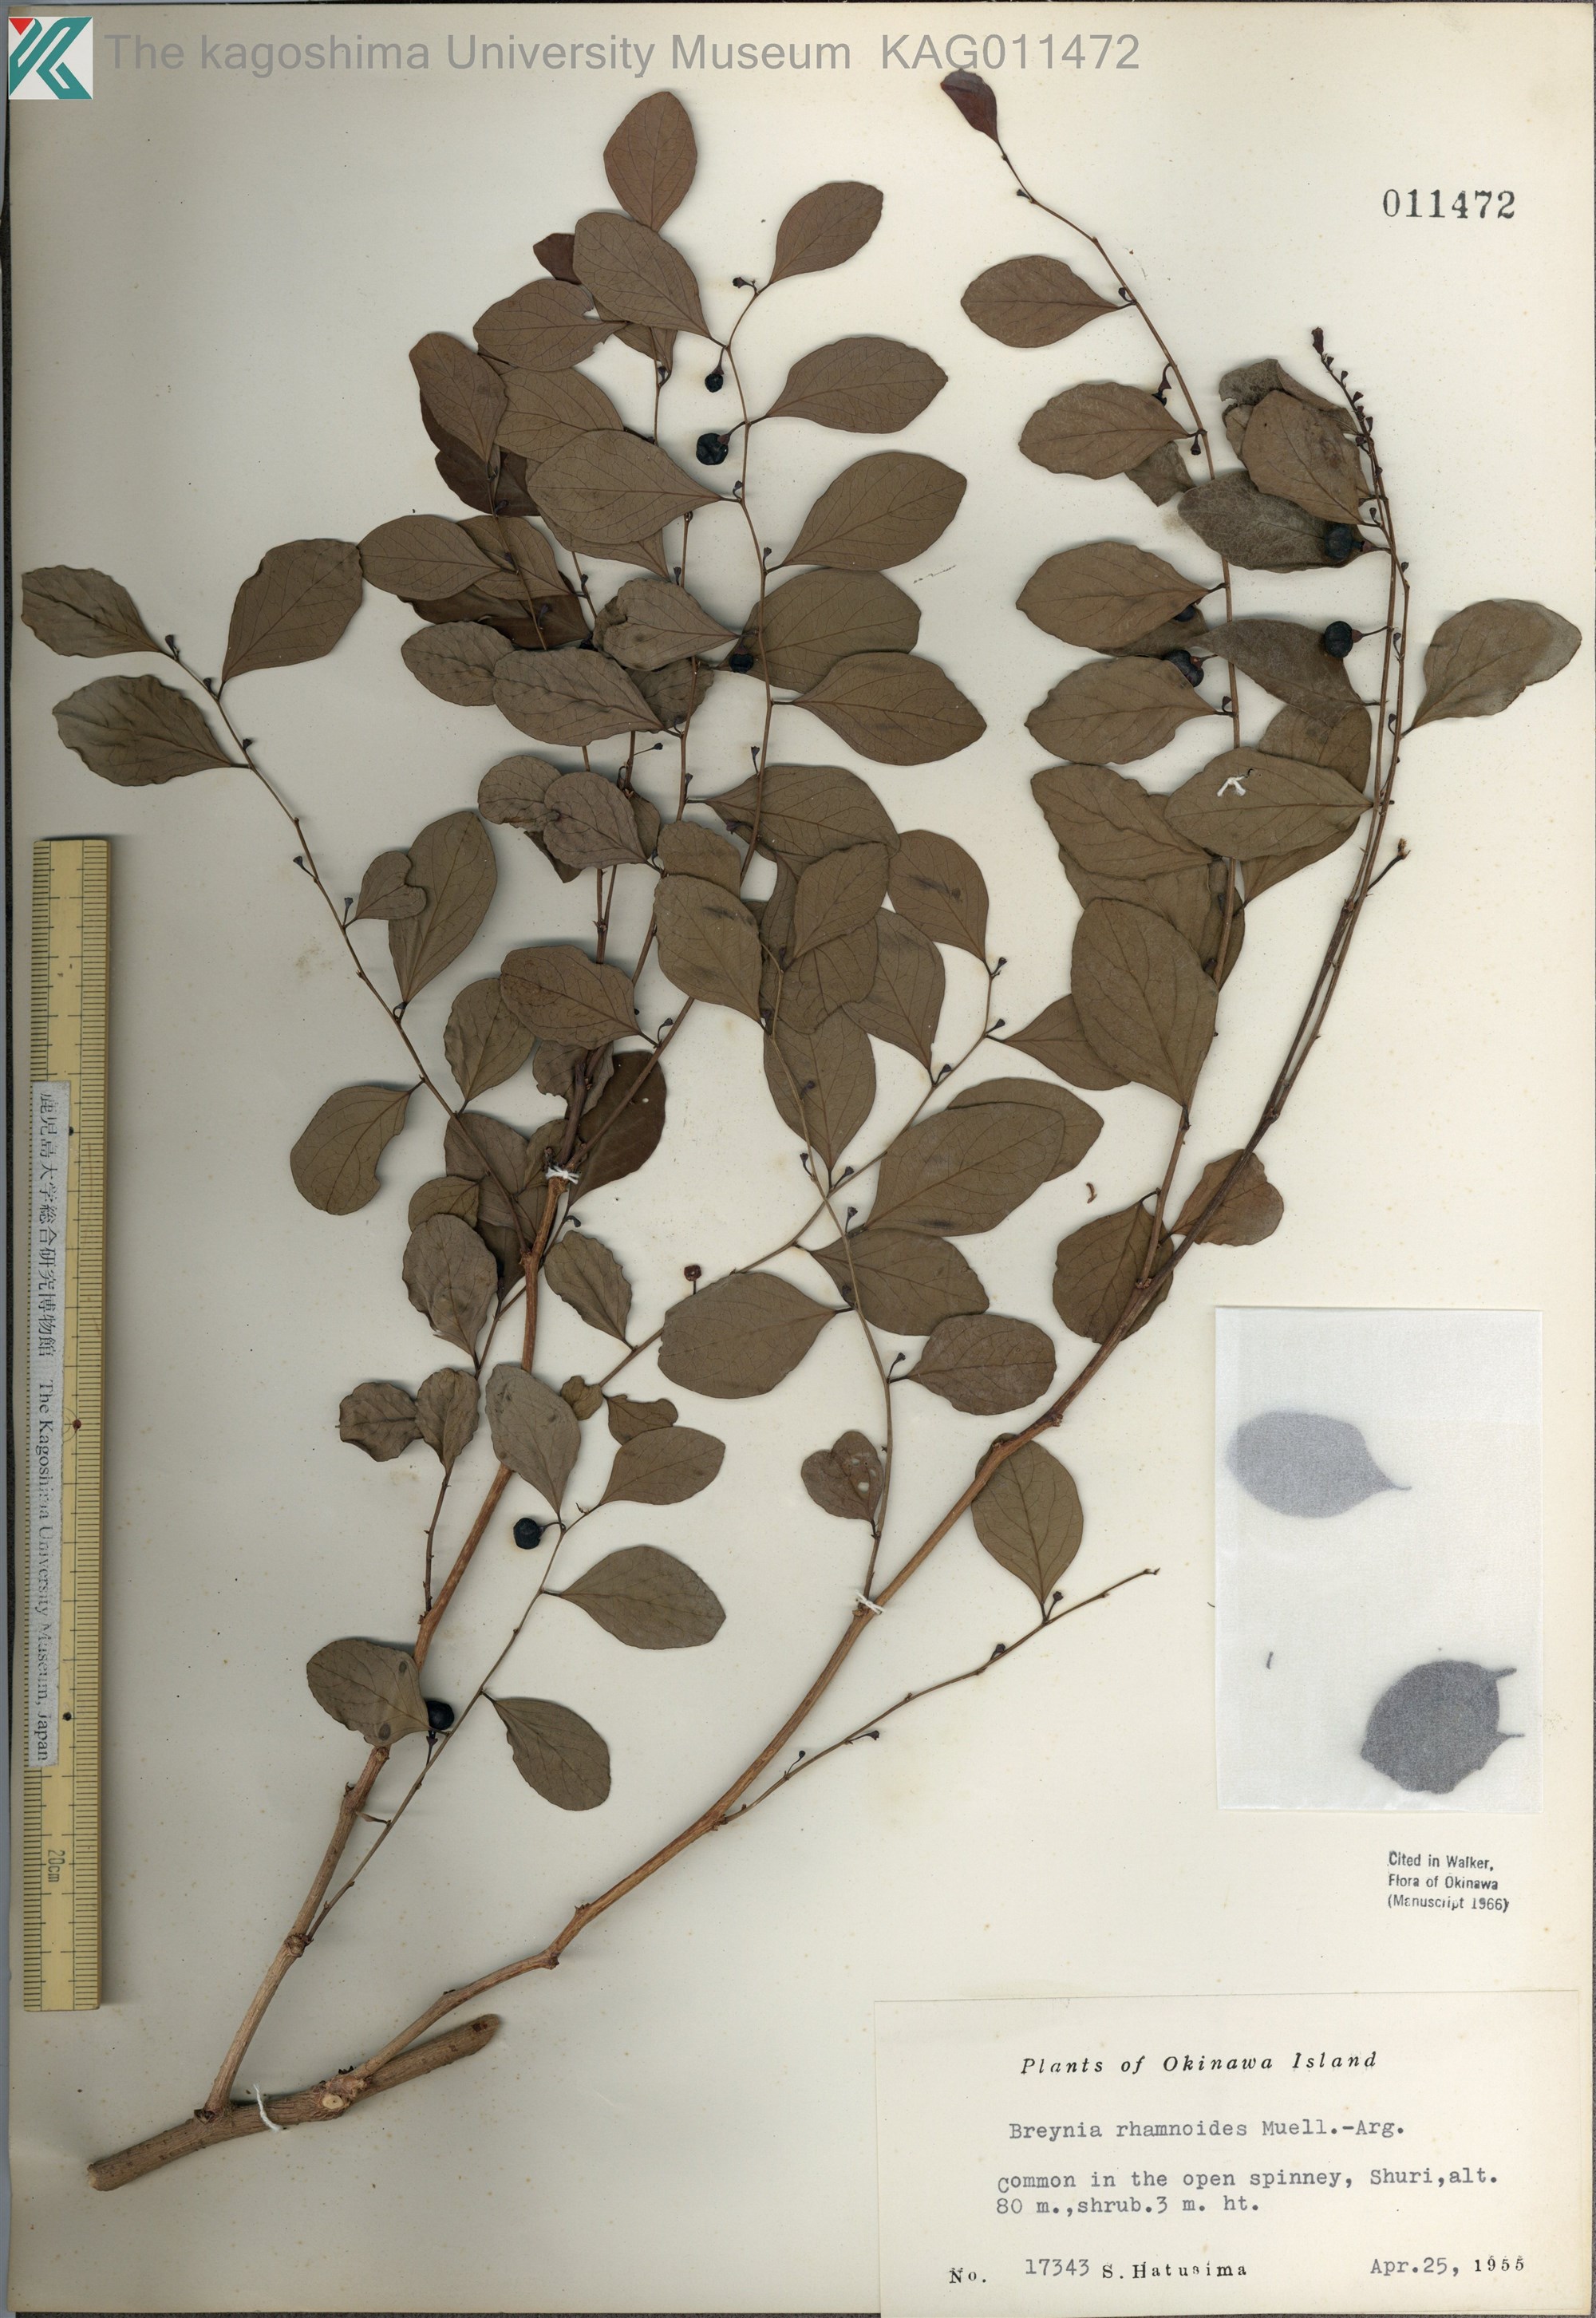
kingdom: Plantae
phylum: Tracheophyta
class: Magnoliopsida
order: Malpighiales
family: Phyllanthaceae
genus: Breynia
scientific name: Breynia vitis-idaea
